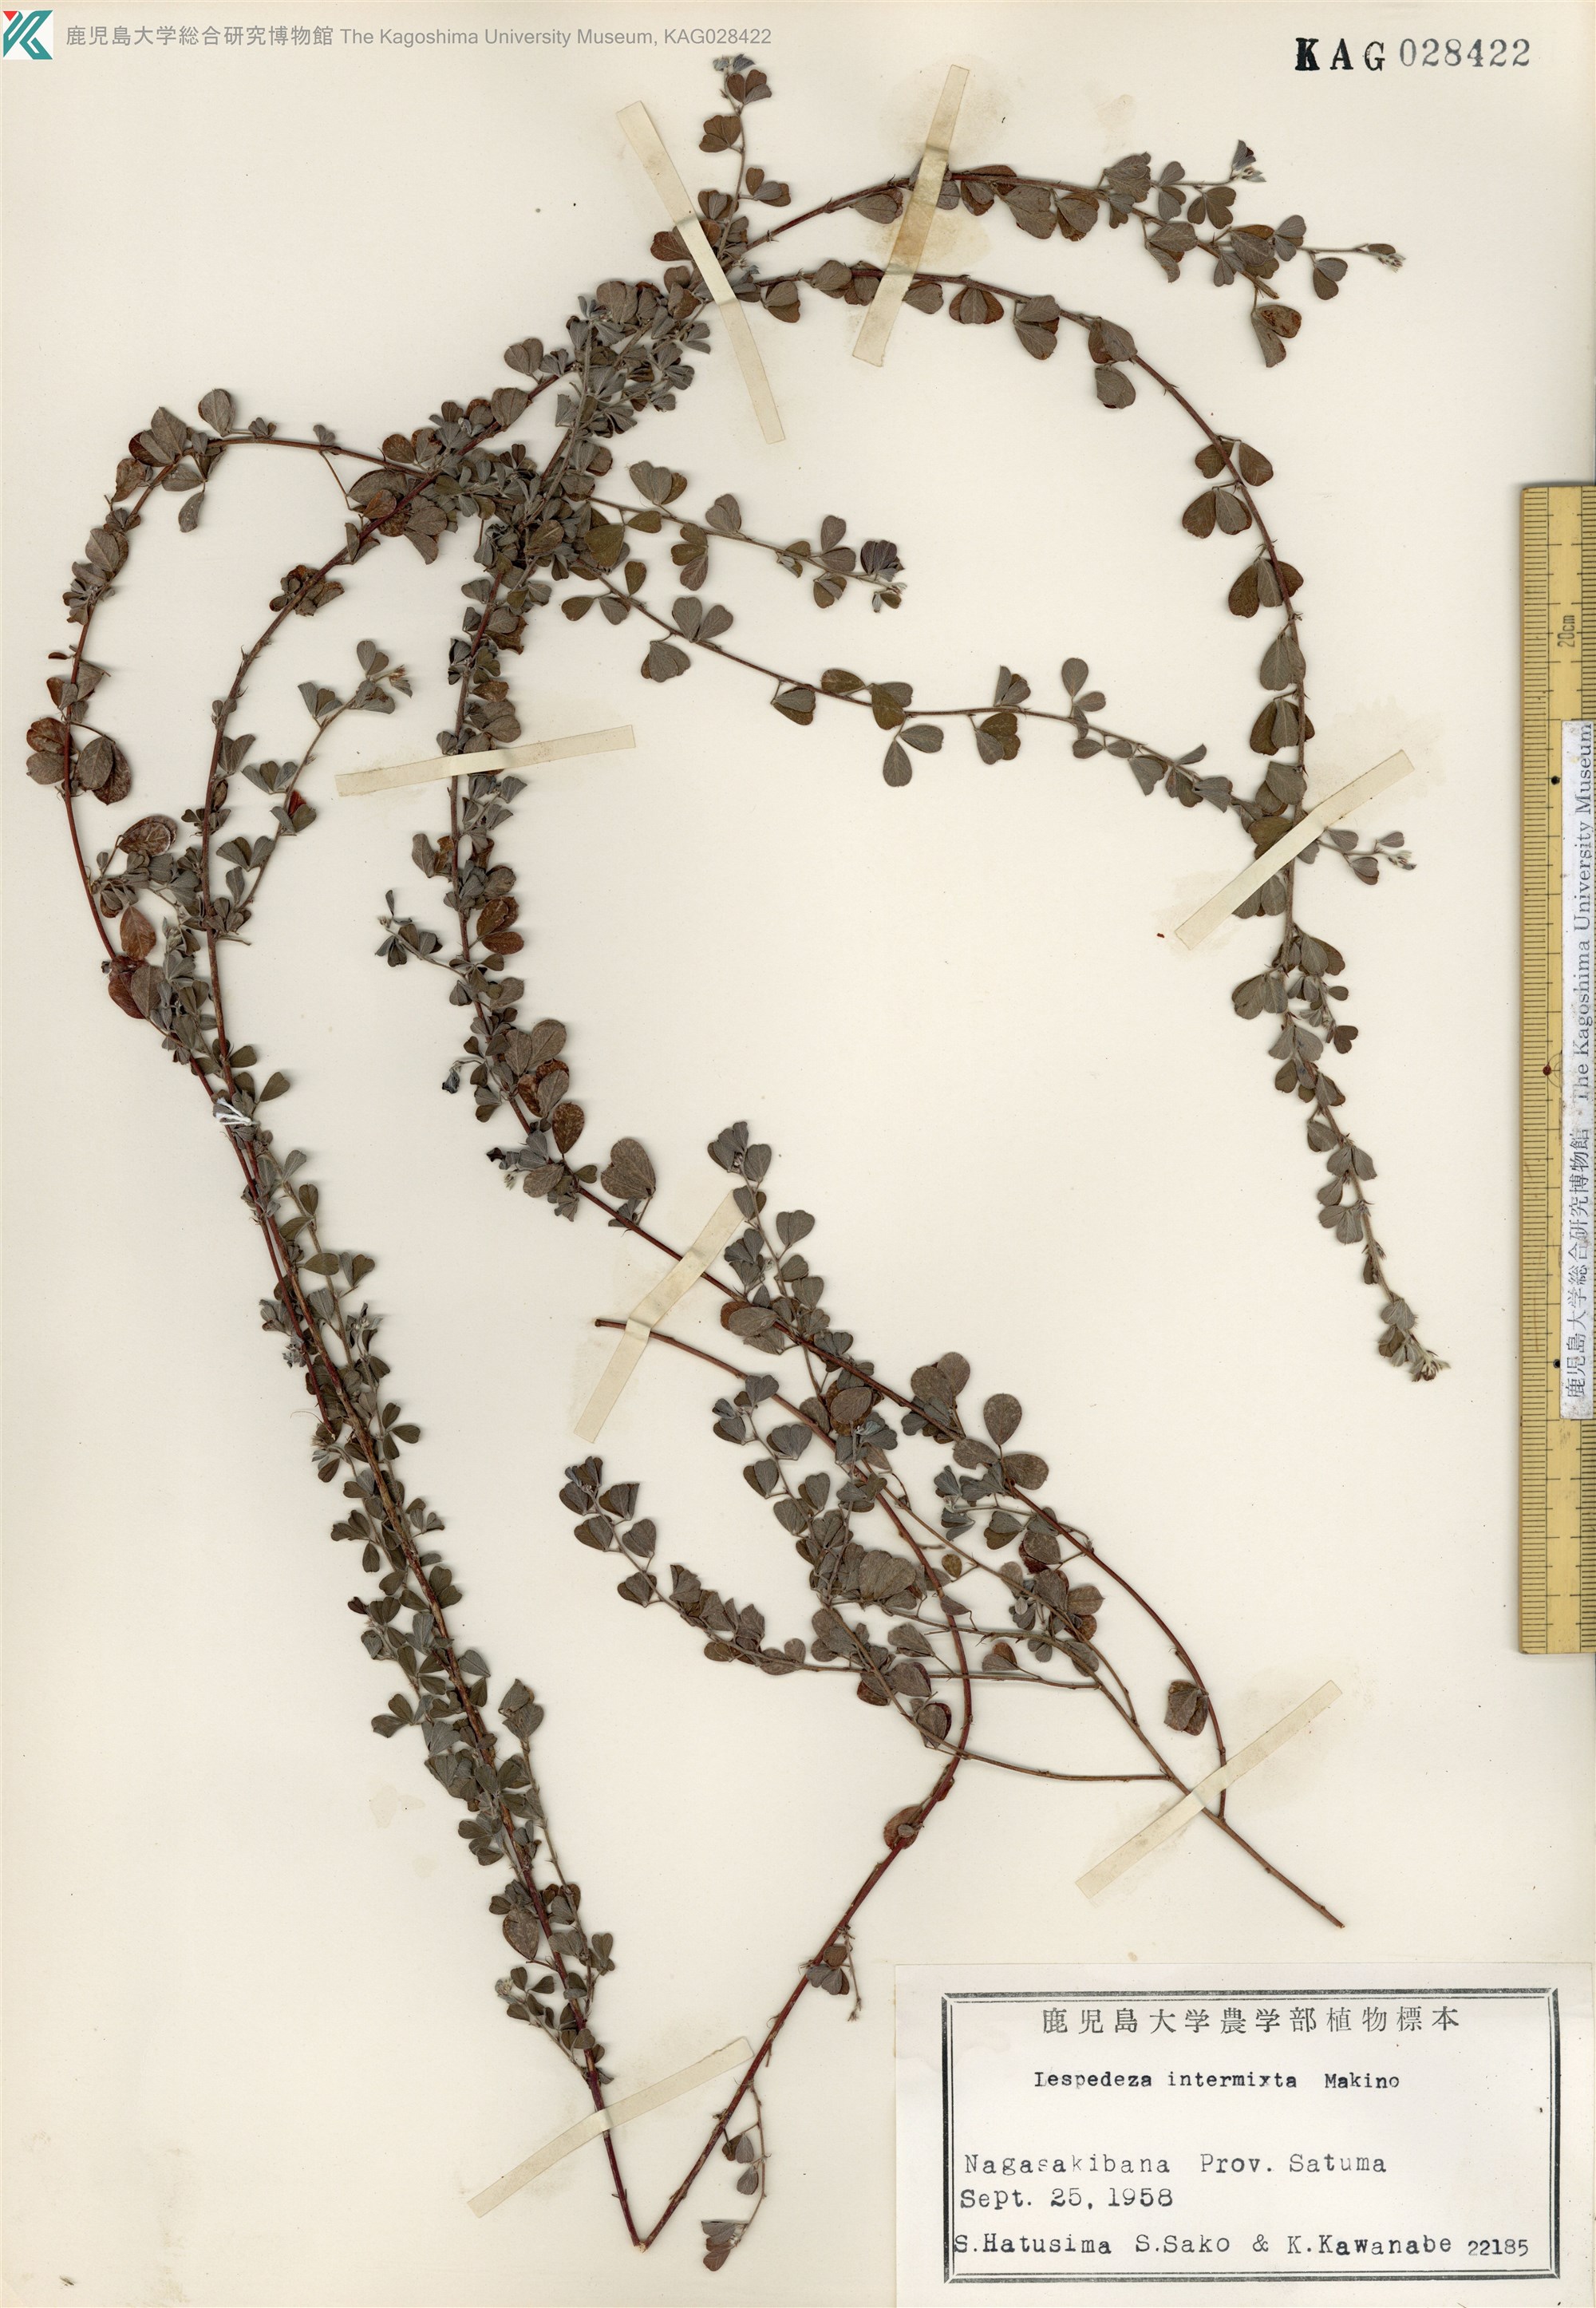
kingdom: Plantae
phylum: Tracheophyta
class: Magnoliopsida
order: Fabales
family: Fabaceae
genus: Lespedeza
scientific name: Lespedeza intermixta
